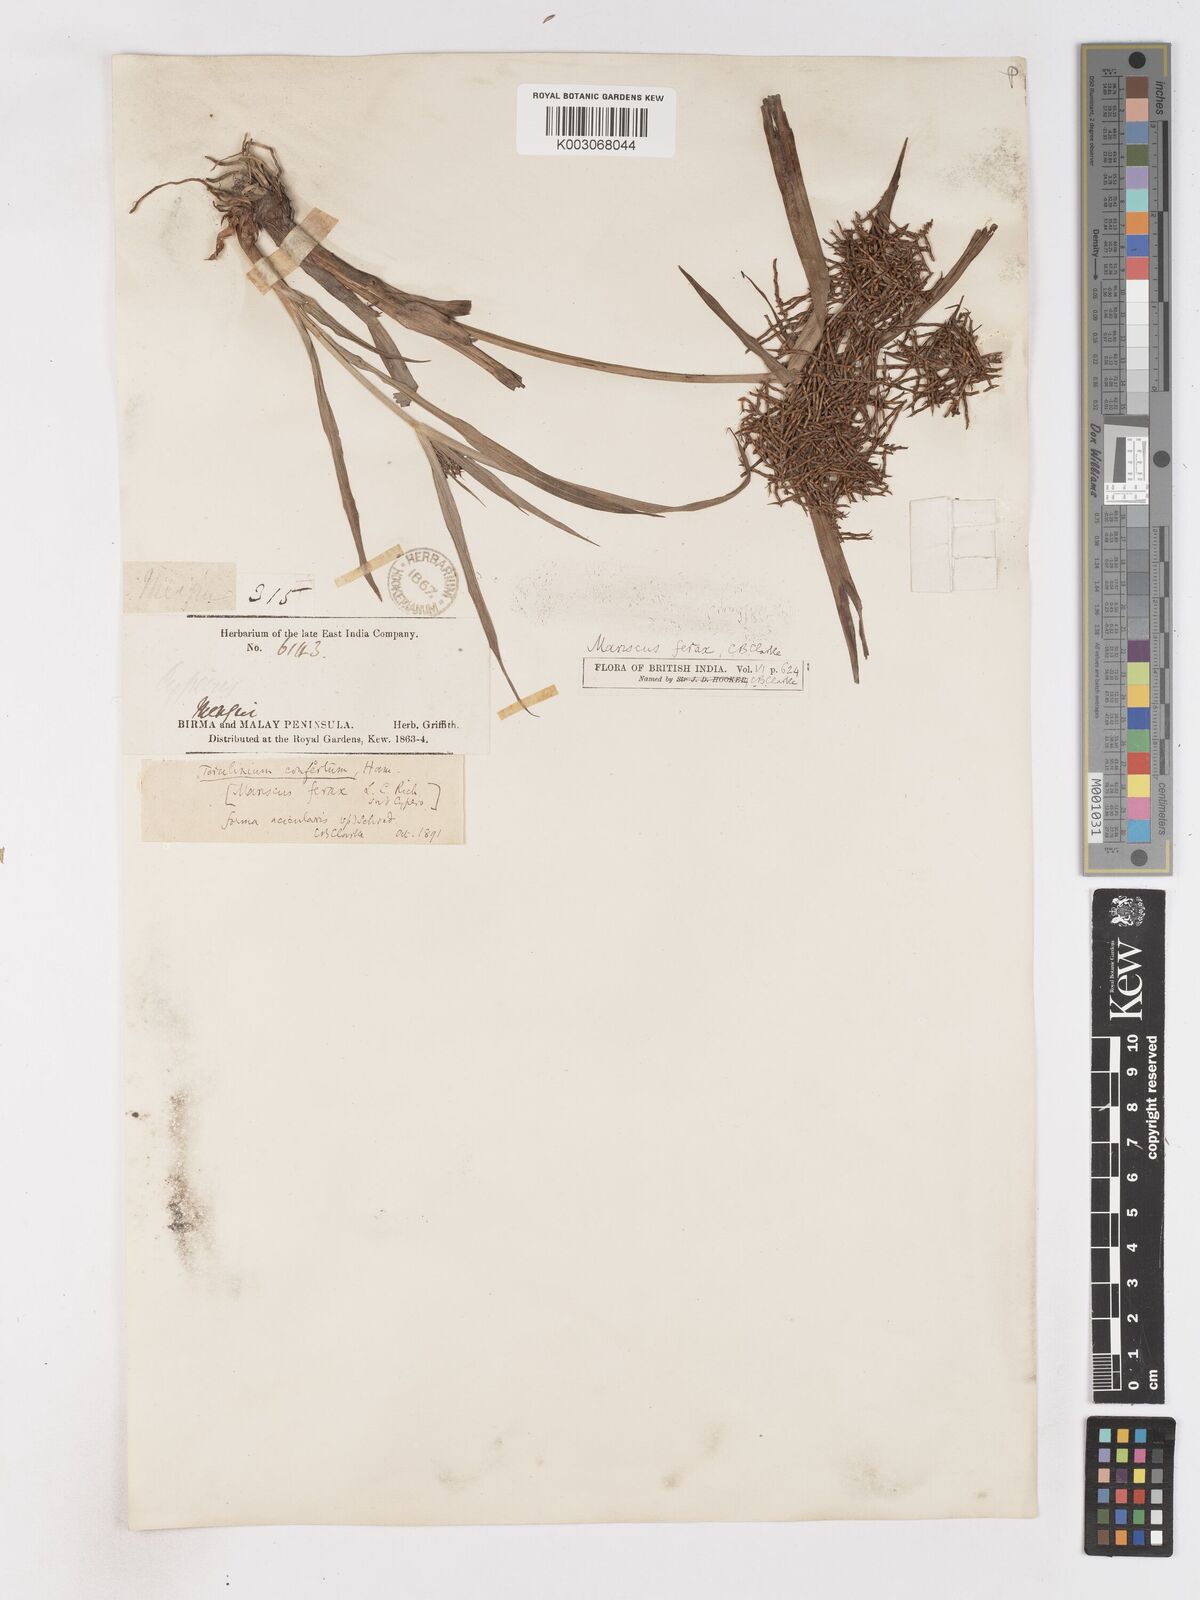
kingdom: Plantae
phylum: Tracheophyta
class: Liliopsida
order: Poales
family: Cyperaceae
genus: Cyperus
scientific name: Cyperus strongii
